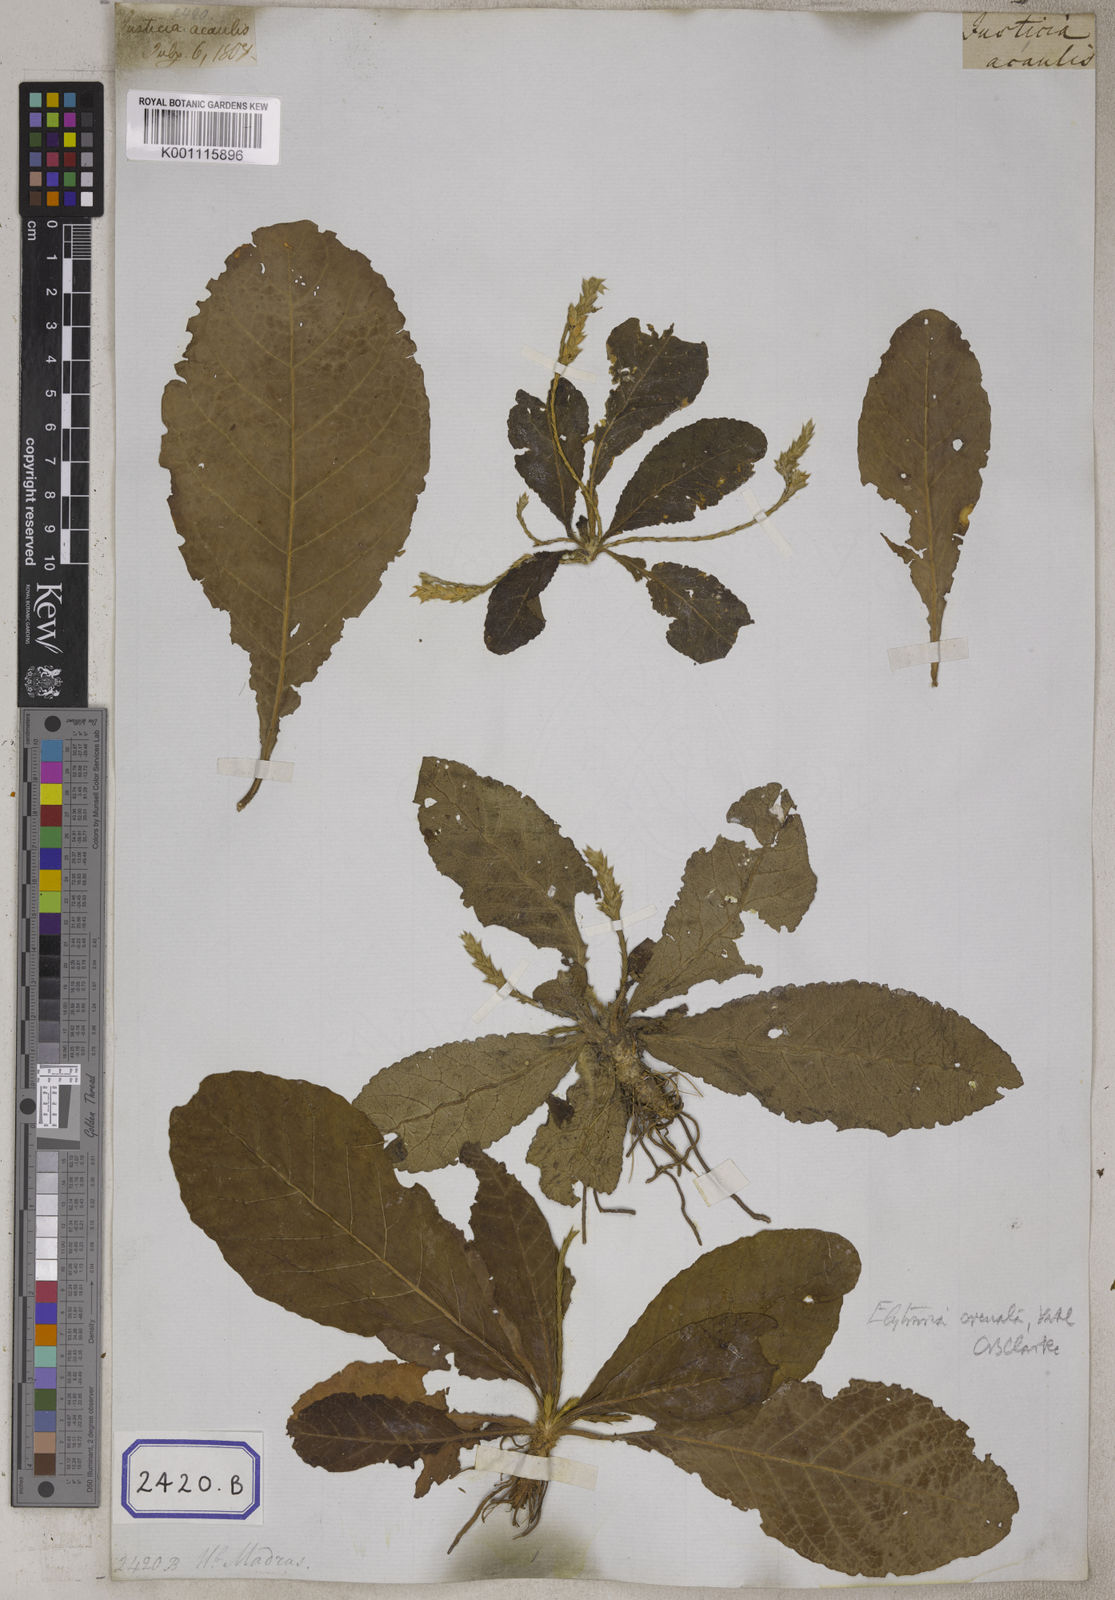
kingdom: Plantae
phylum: Tracheophyta
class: Magnoliopsida
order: Lamiales
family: Acanthaceae
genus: Elytraria
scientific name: Elytraria acaulis
